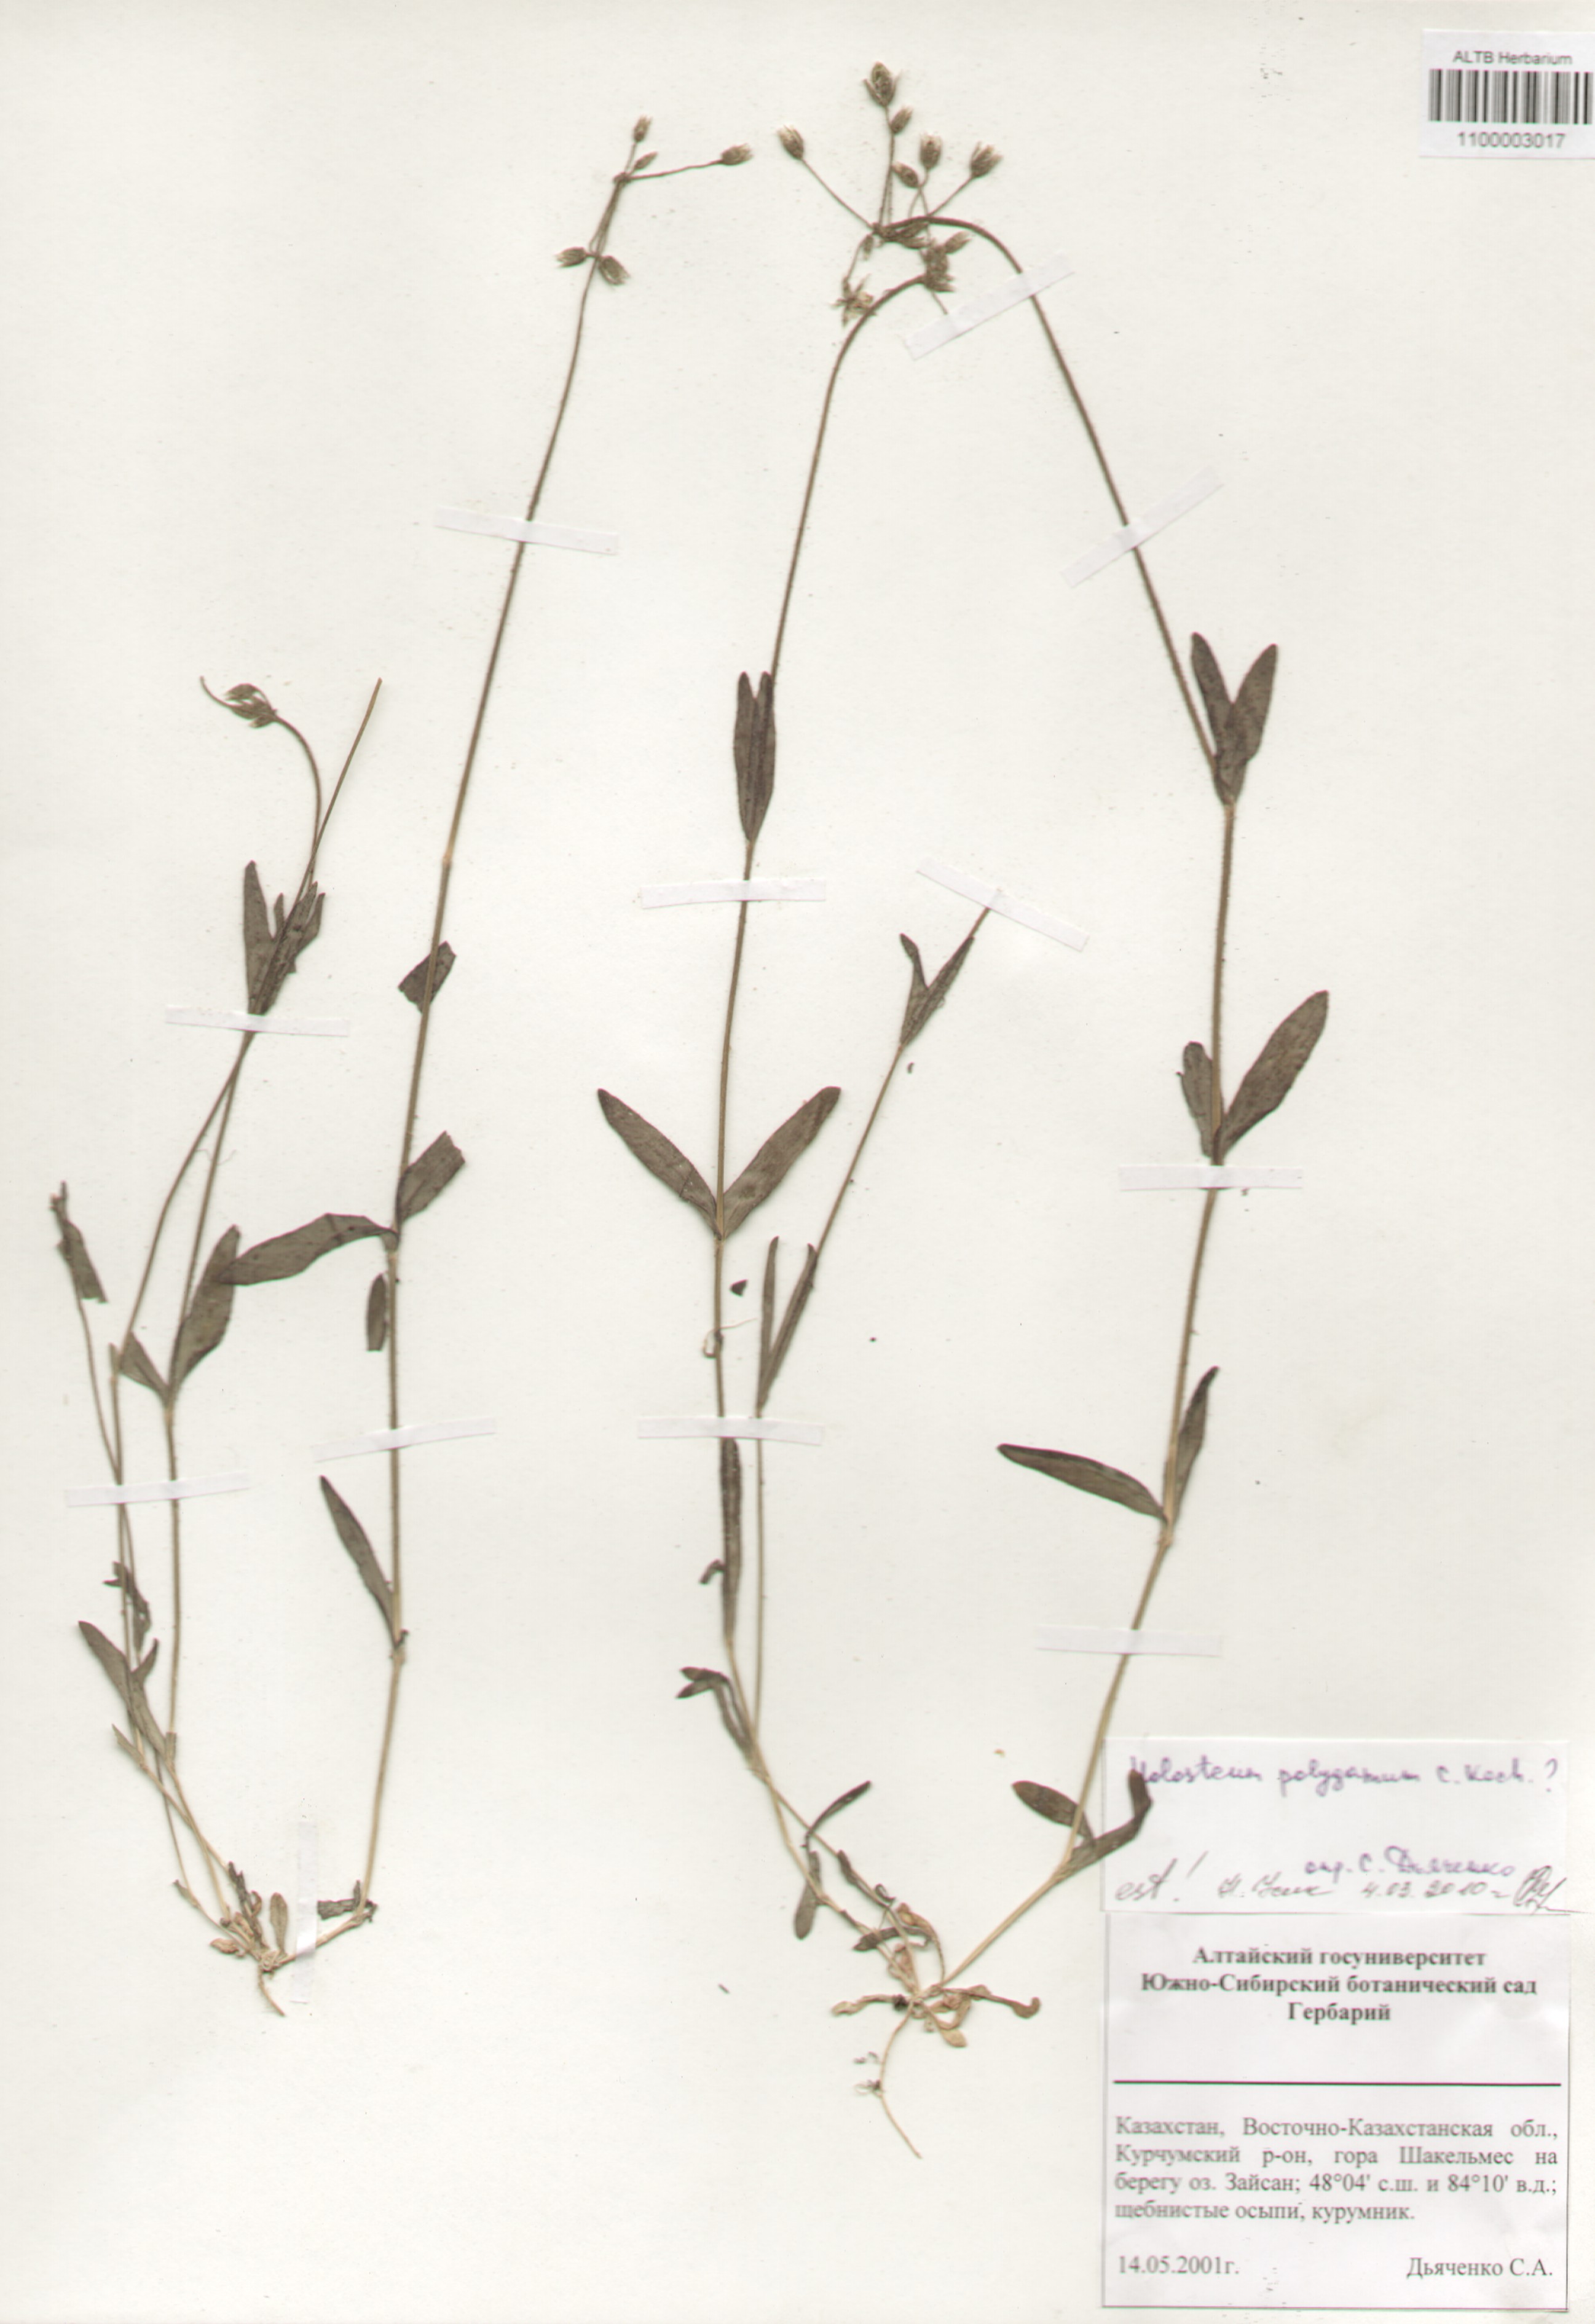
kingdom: Plantae
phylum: Tracheophyta
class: Magnoliopsida
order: Caryophyllales
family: Caryophyllaceae
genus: Holosteum
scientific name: Holosteum glutinosum
